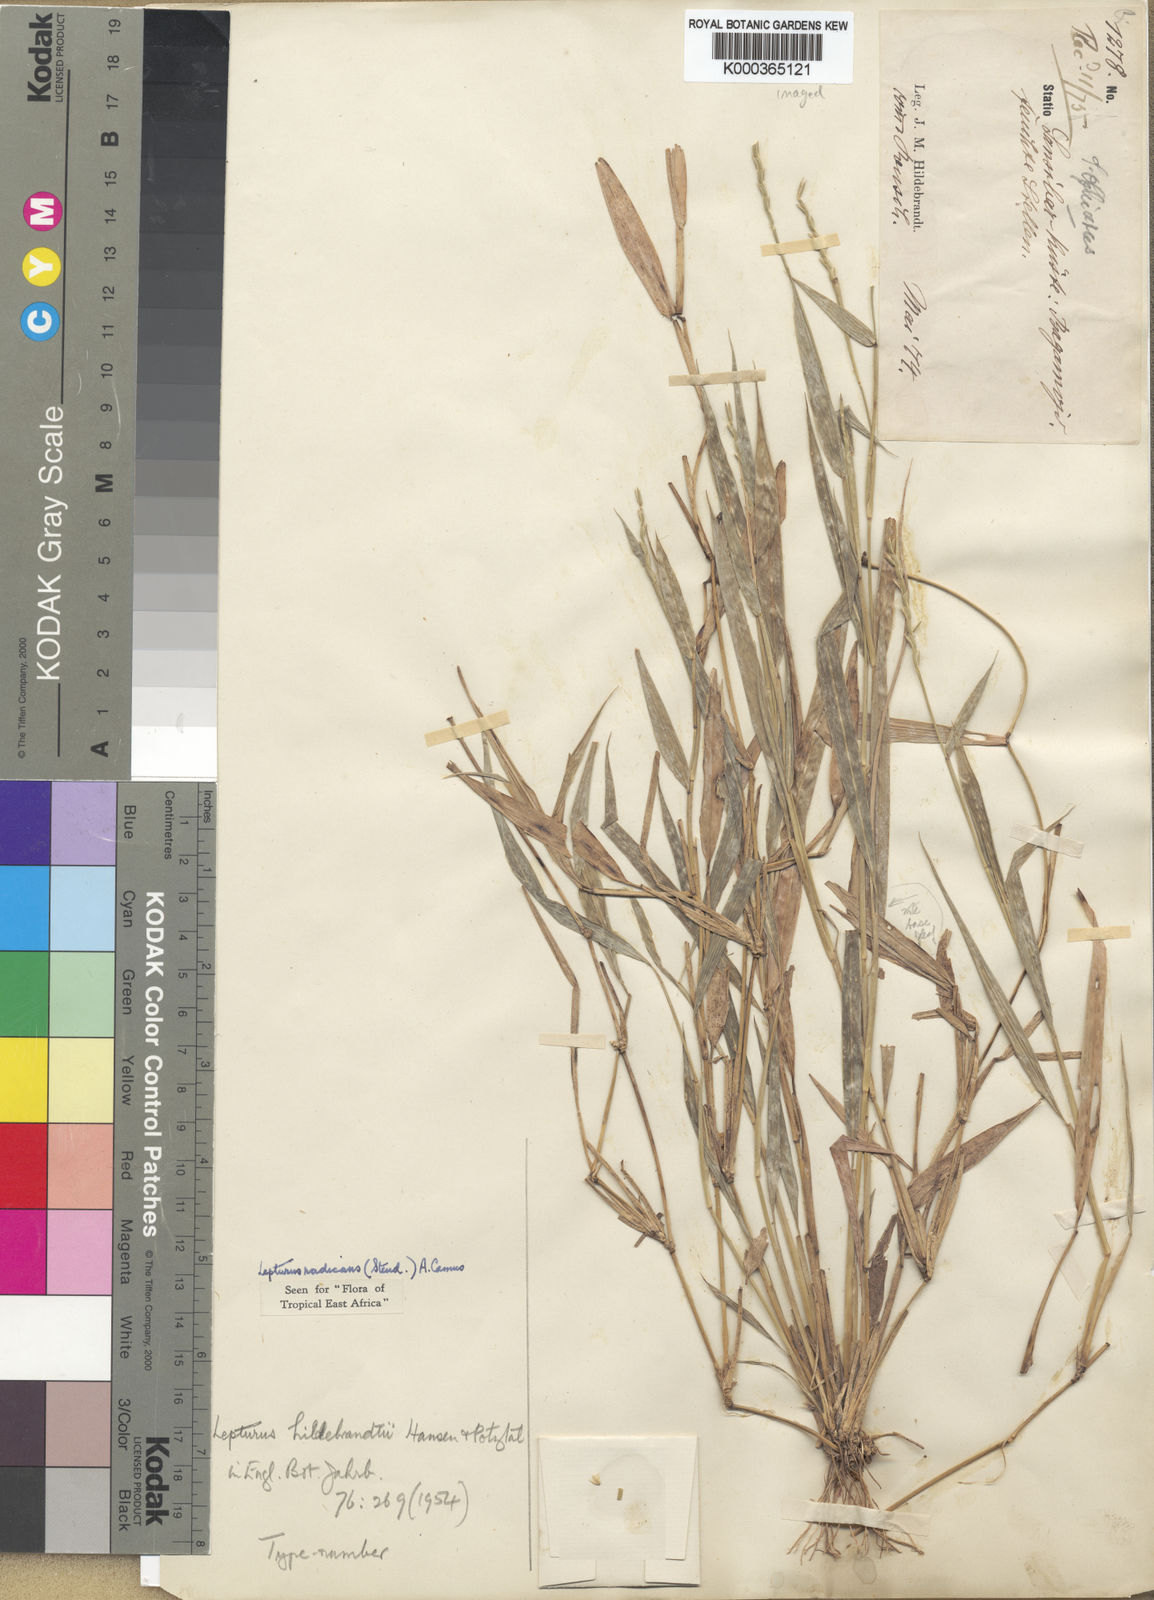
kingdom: Plantae
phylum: Tracheophyta
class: Liliopsida
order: Poales
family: Poaceae
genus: Lepturus
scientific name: Lepturus radicans
